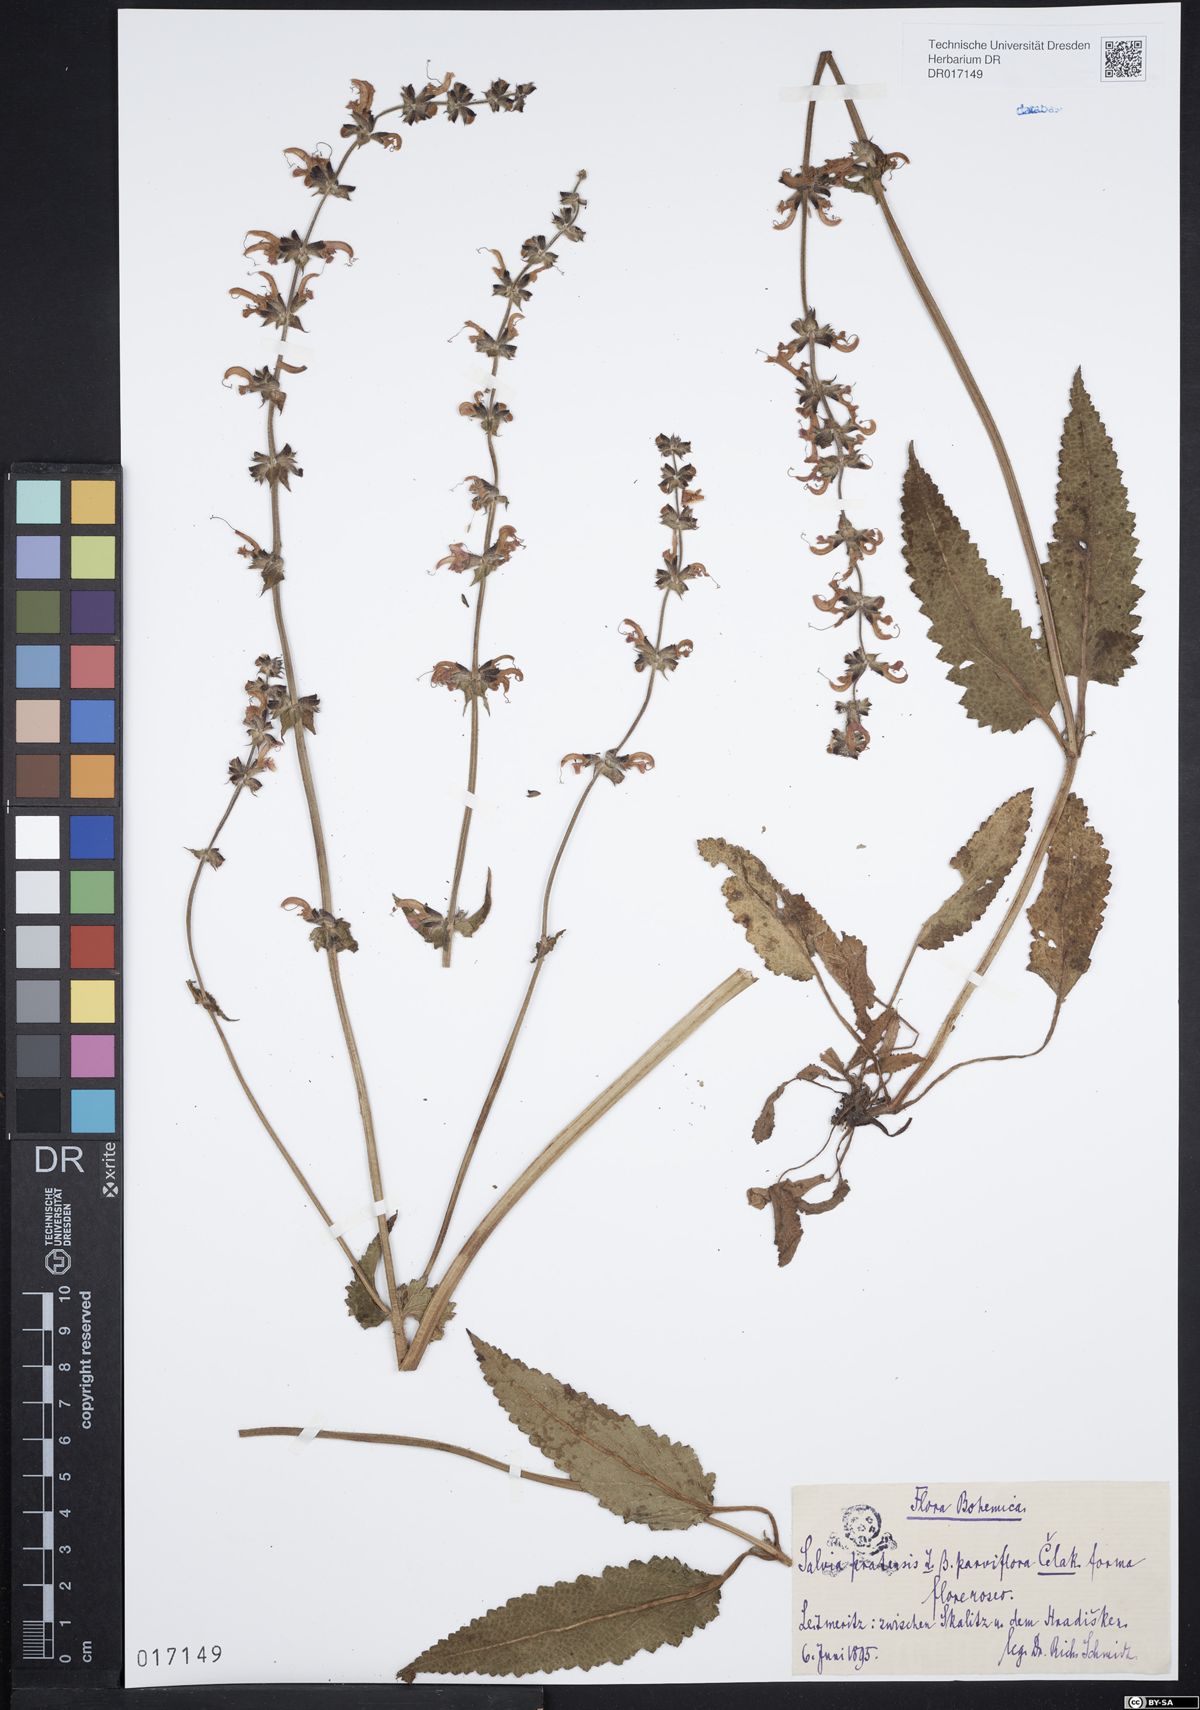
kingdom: Plantae
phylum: Tracheophyta
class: Magnoliopsida
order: Lamiales
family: Lamiaceae
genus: Salvia
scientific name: Salvia pratensis
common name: Meadow sage
